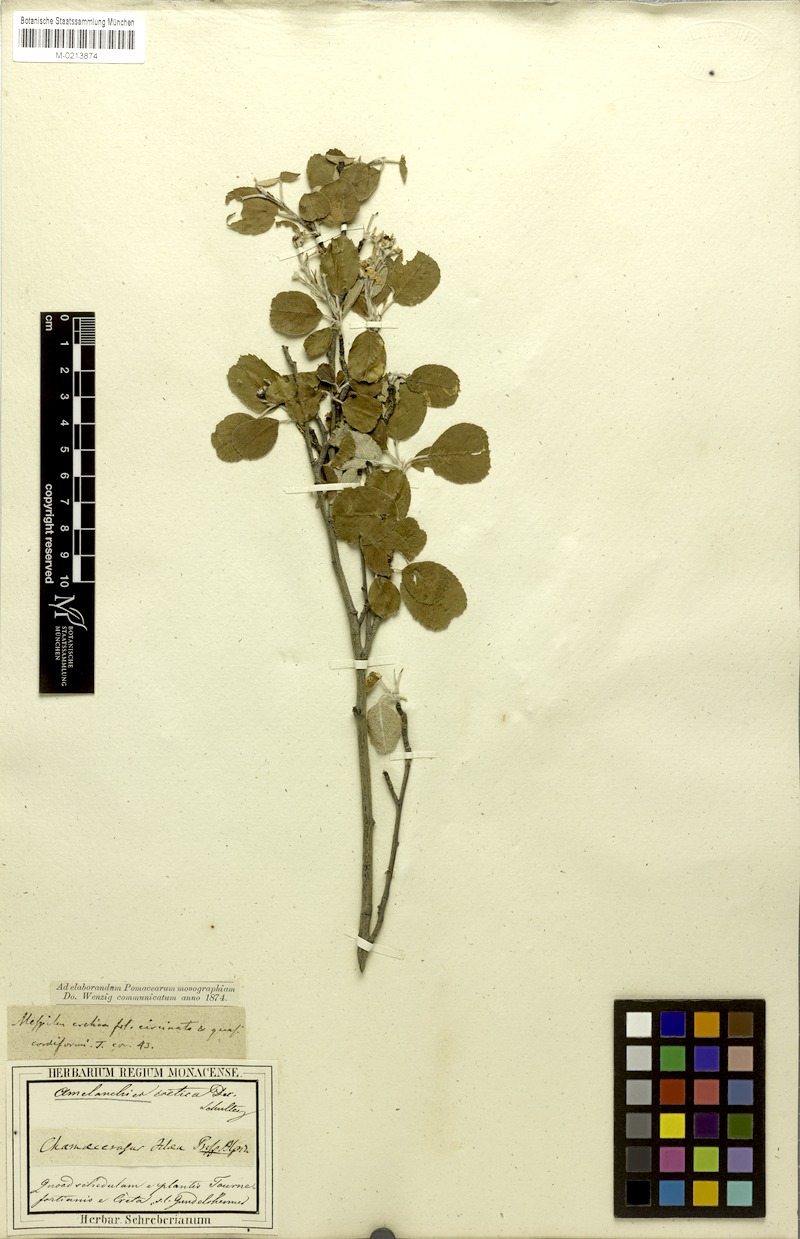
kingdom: Plantae
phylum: Tracheophyta
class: Magnoliopsida
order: Rosales
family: Rosaceae
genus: Amelanchier
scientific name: Amelanchier ovalis
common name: Serviceberry
